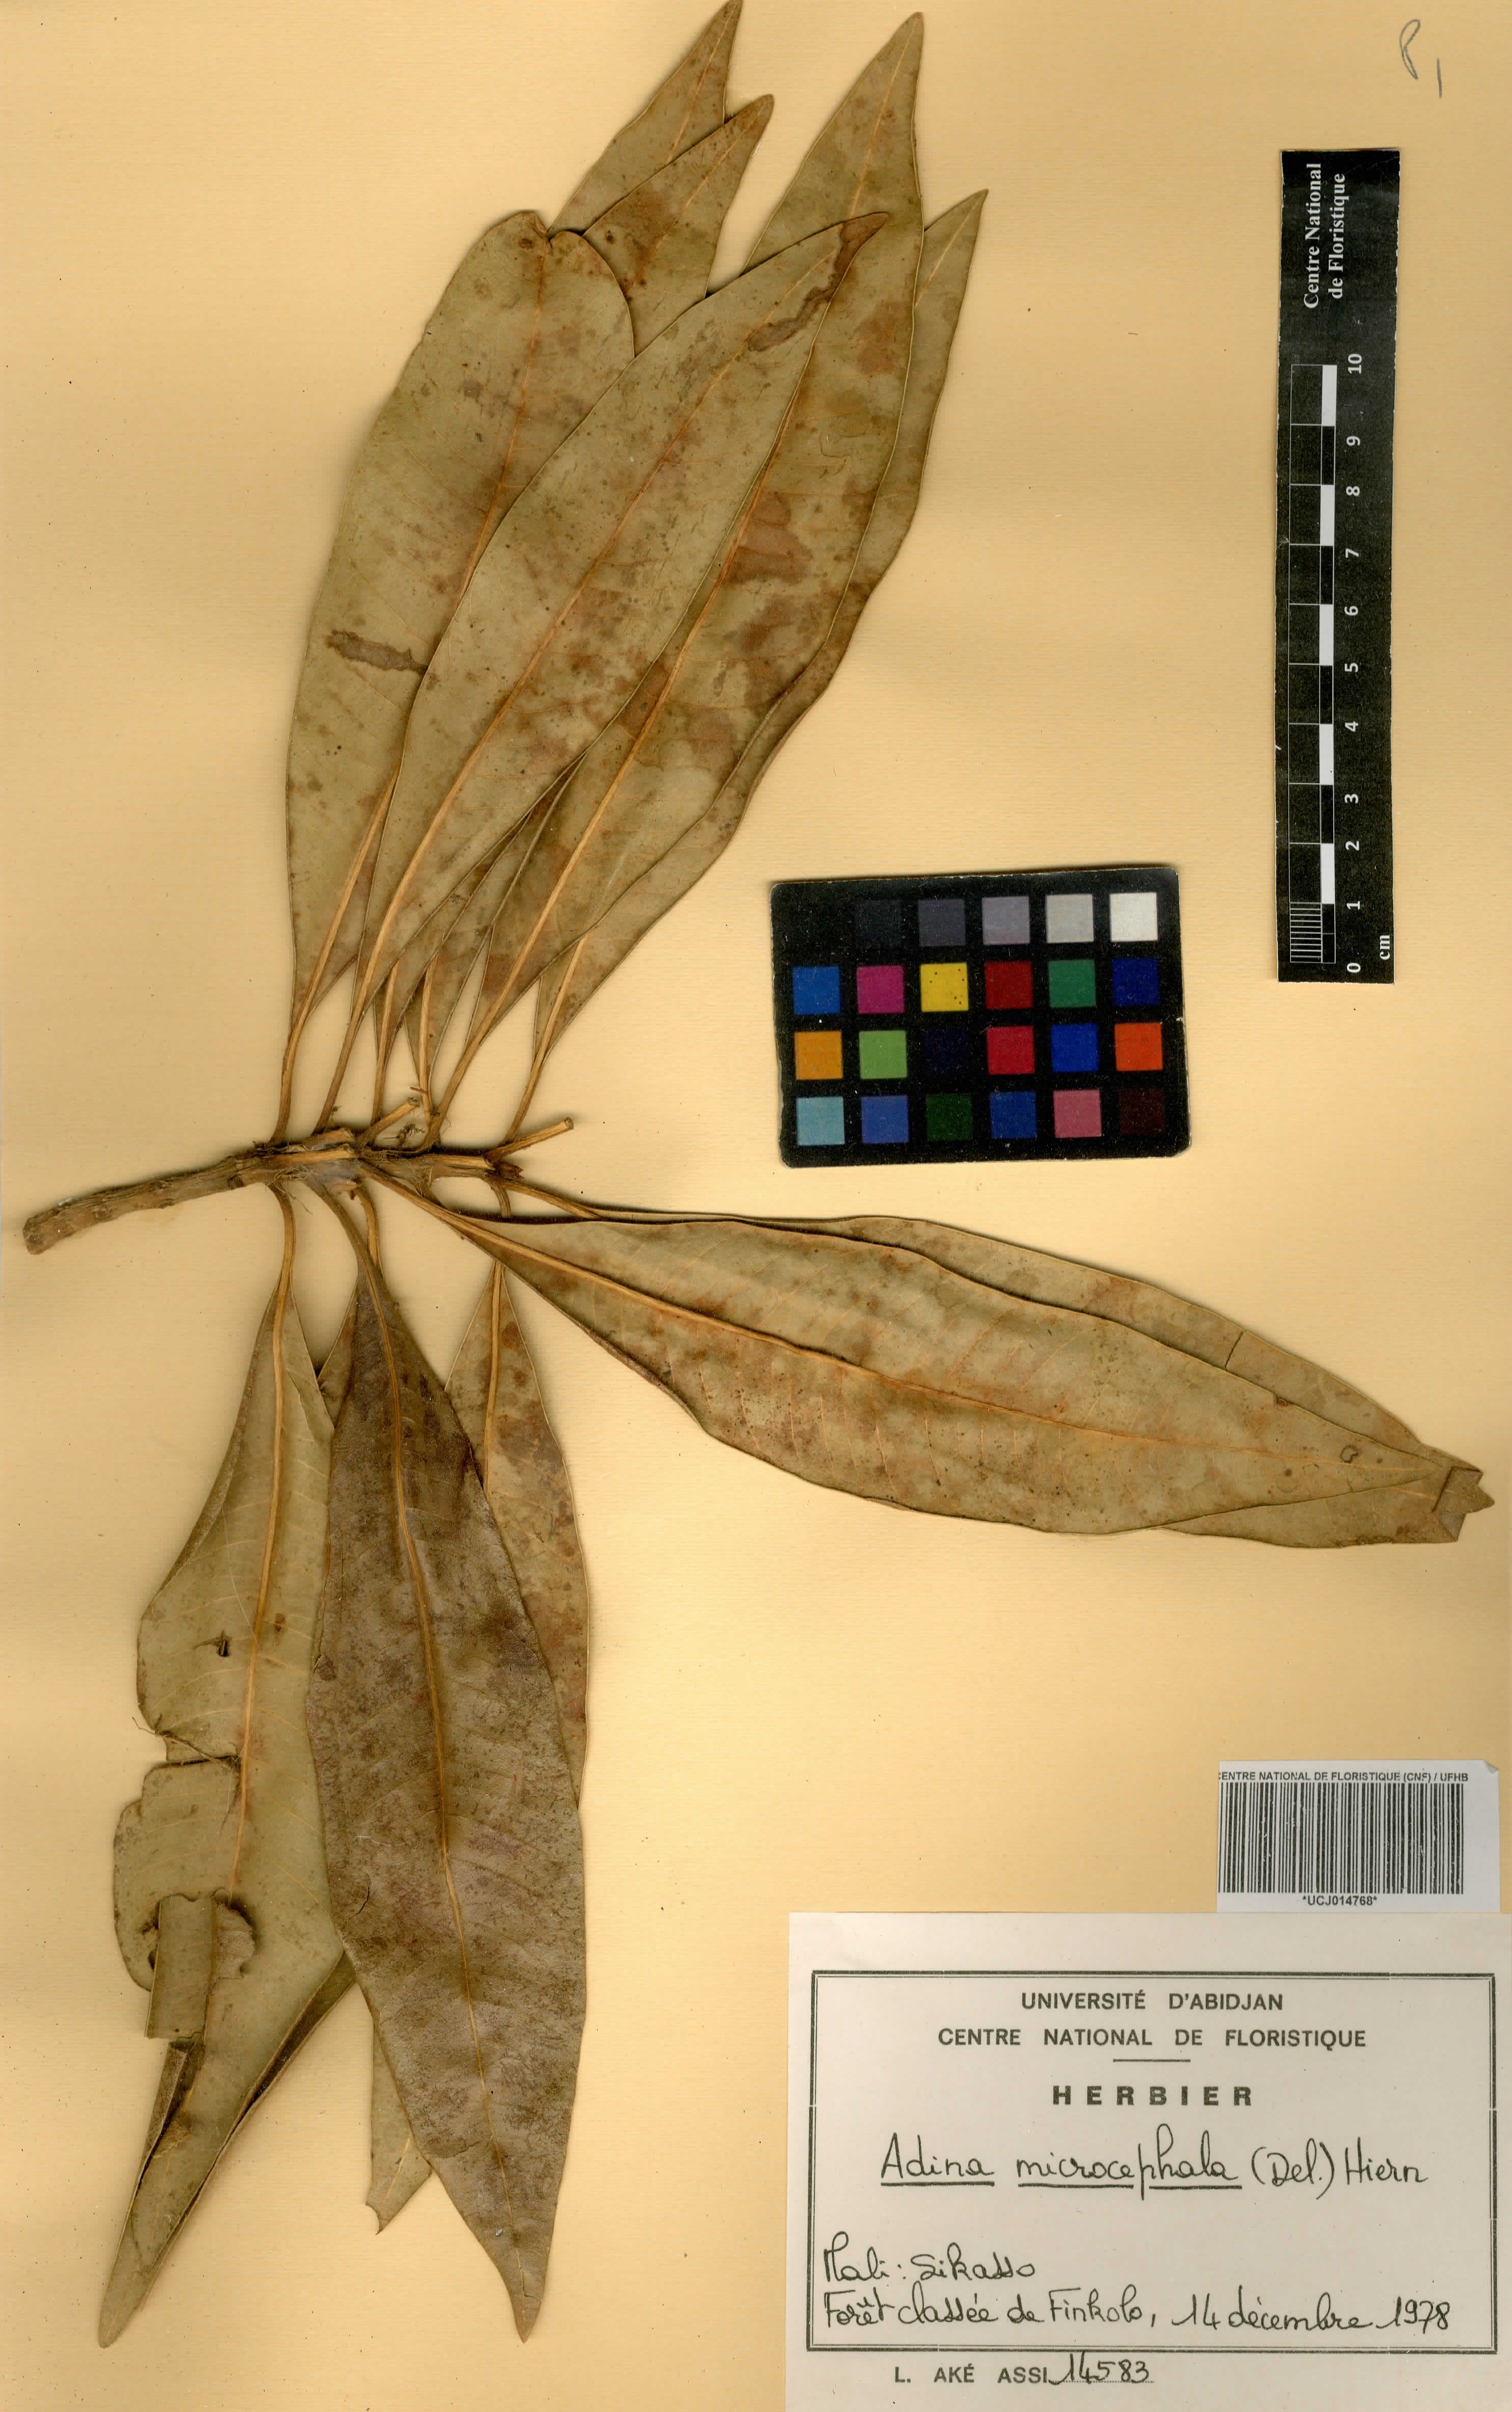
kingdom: Plantae
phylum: Tracheophyta
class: Magnoliopsida
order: Gentianales
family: Rubiaceae
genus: Breonadia
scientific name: Breonadia salicina
